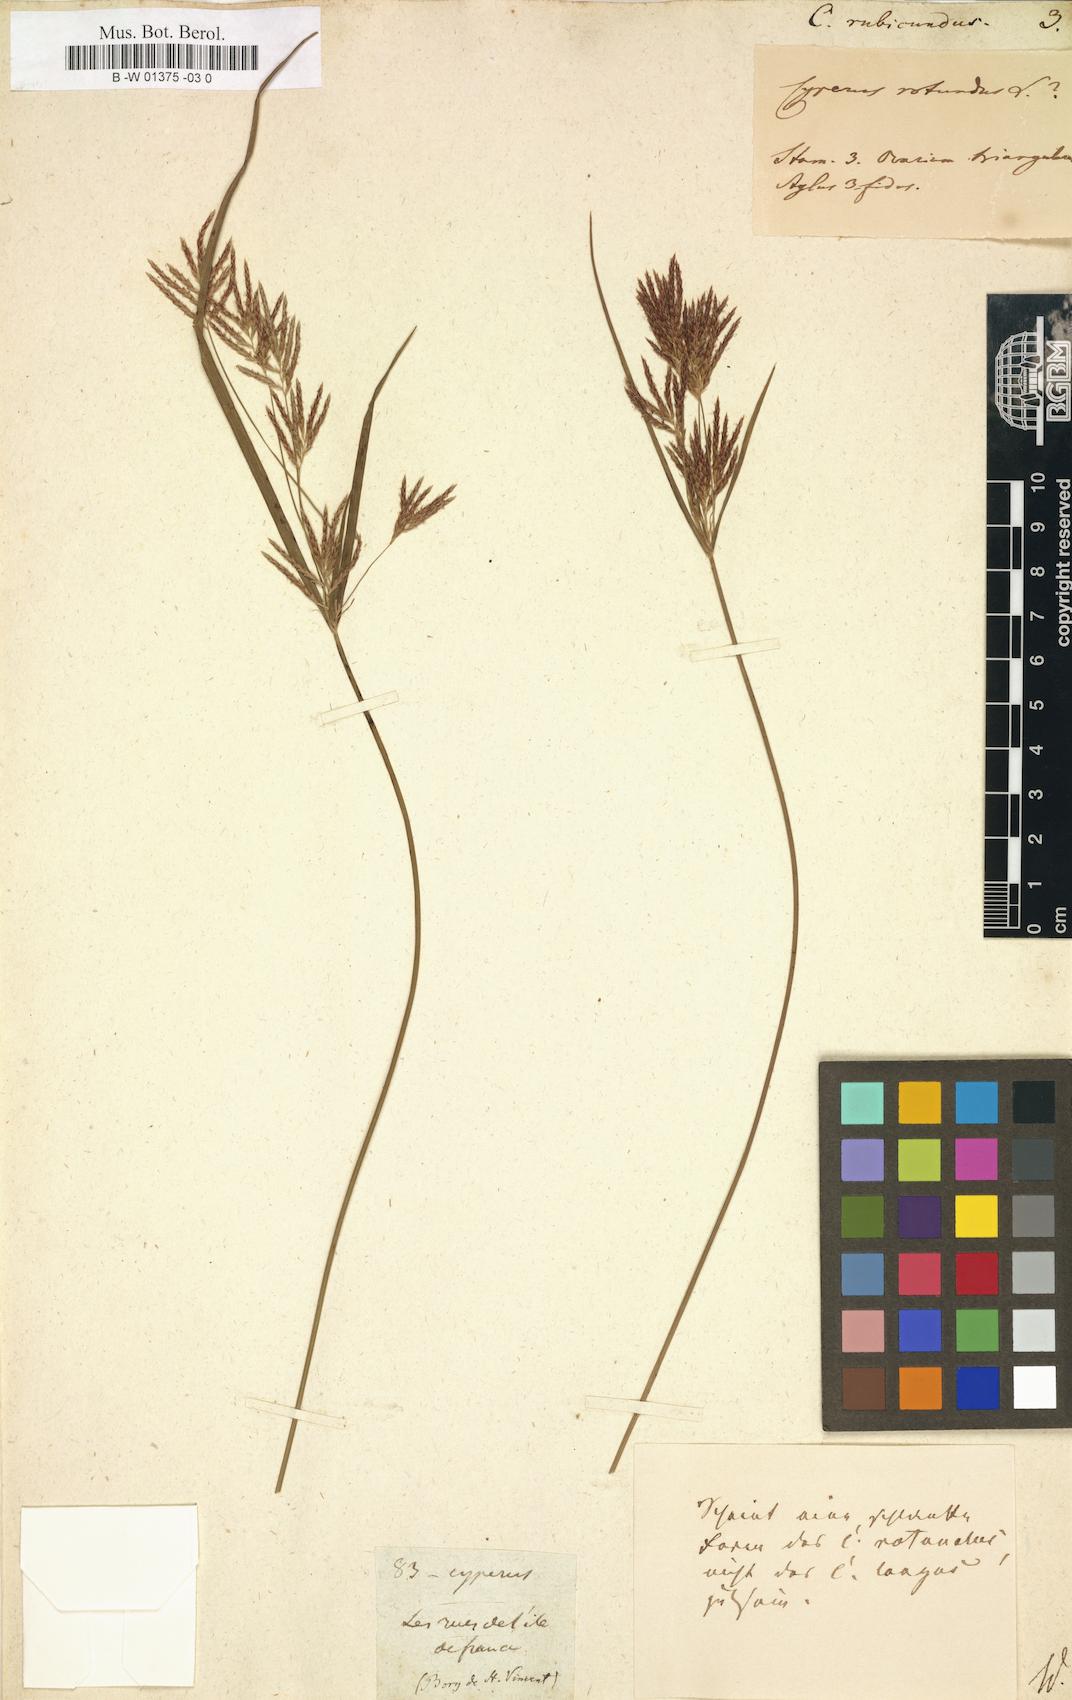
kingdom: Plantae
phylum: Tracheophyta
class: Liliopsida
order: Poales
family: Cyperaceae
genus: Cyperus
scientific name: Cyperus rubicundus
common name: Coco-grass
